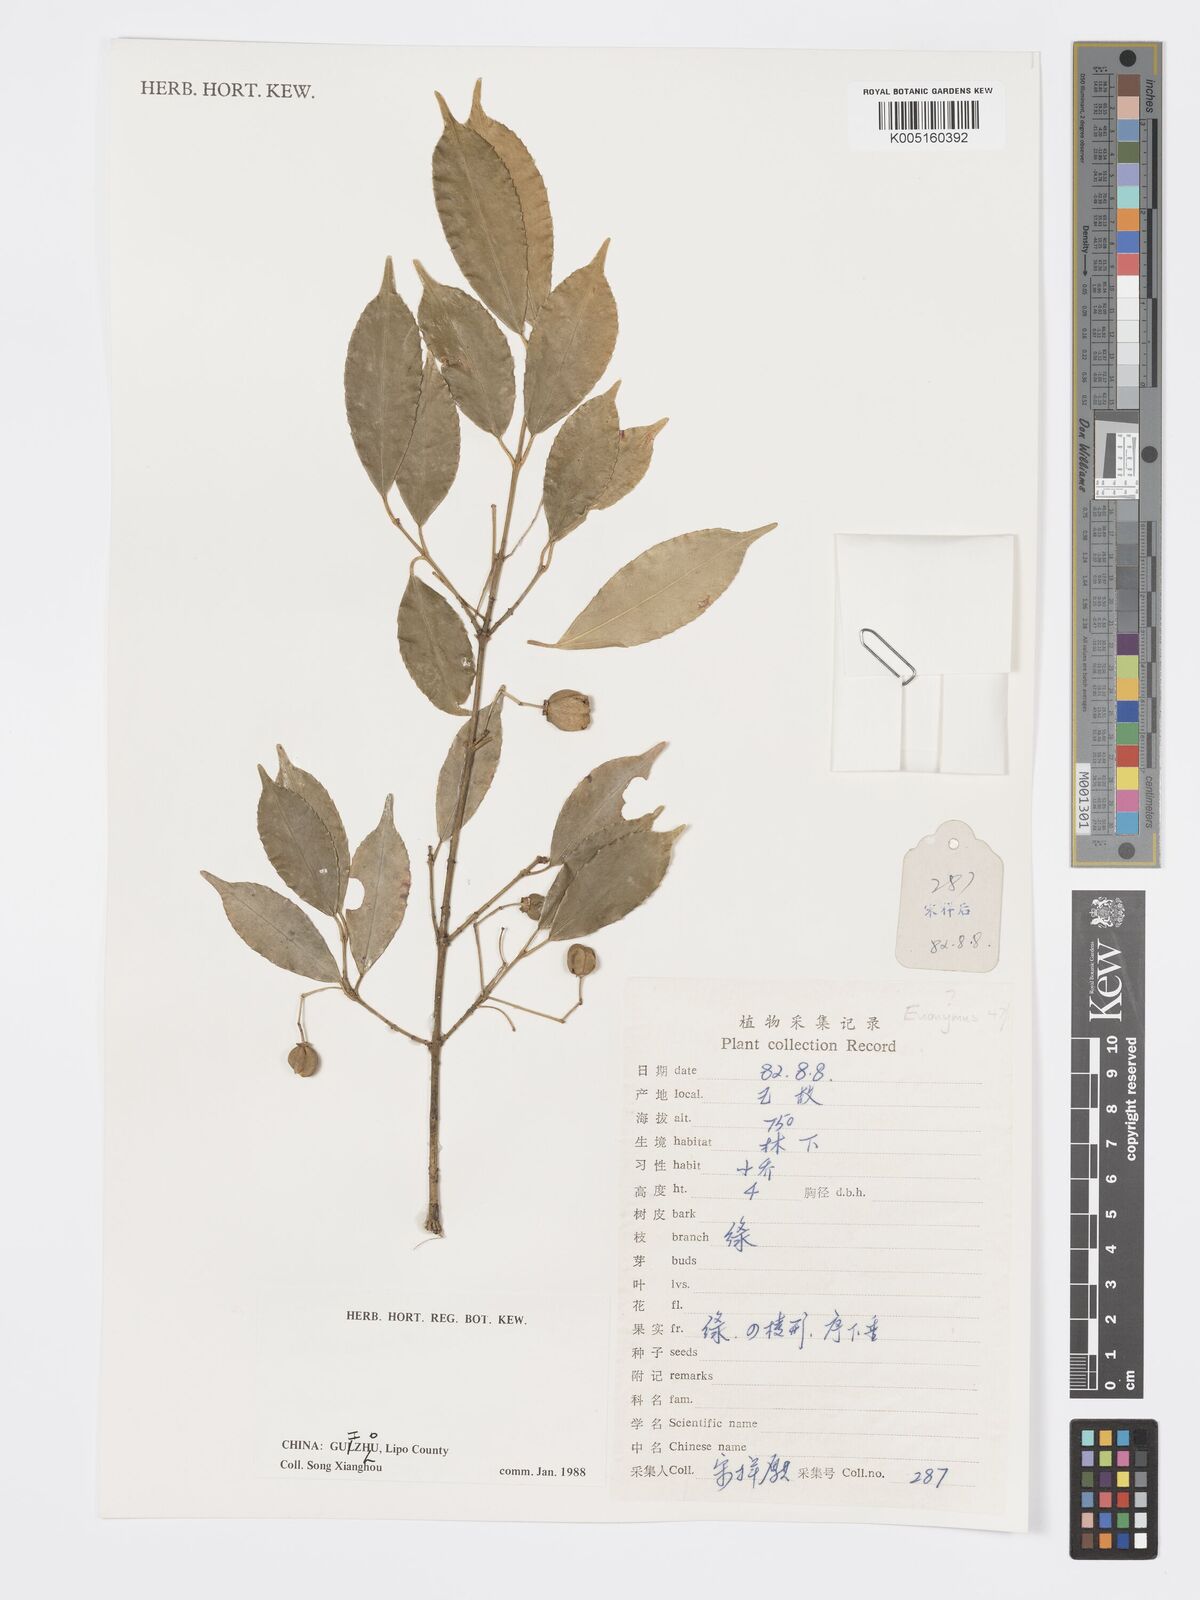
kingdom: Plantae
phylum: Tracheophyta
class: Magnoliopsida
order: Celastrales
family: Celastraceae
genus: Euonymus
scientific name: Euonymus
